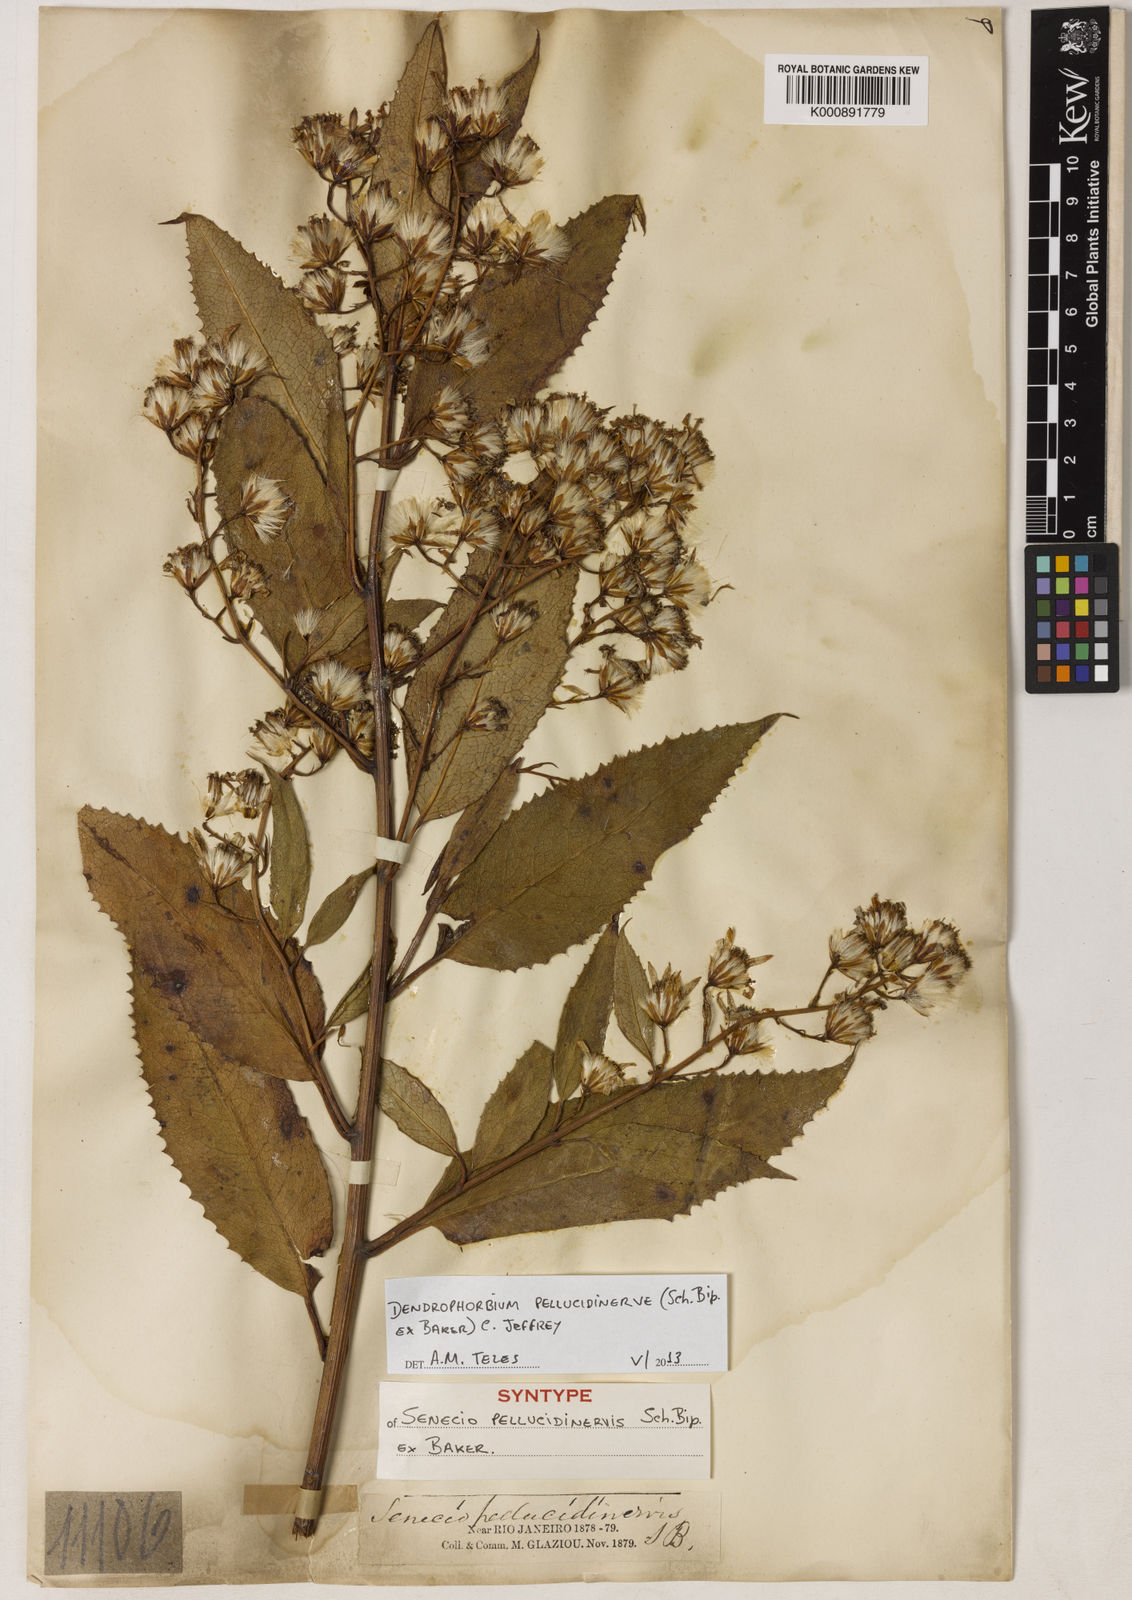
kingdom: Plantae
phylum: Tracheophyta
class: Magnoliopsida
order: Asterales
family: Asteraceae
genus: Dendrophorbium
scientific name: Dendrophorbium pellucidinerve
